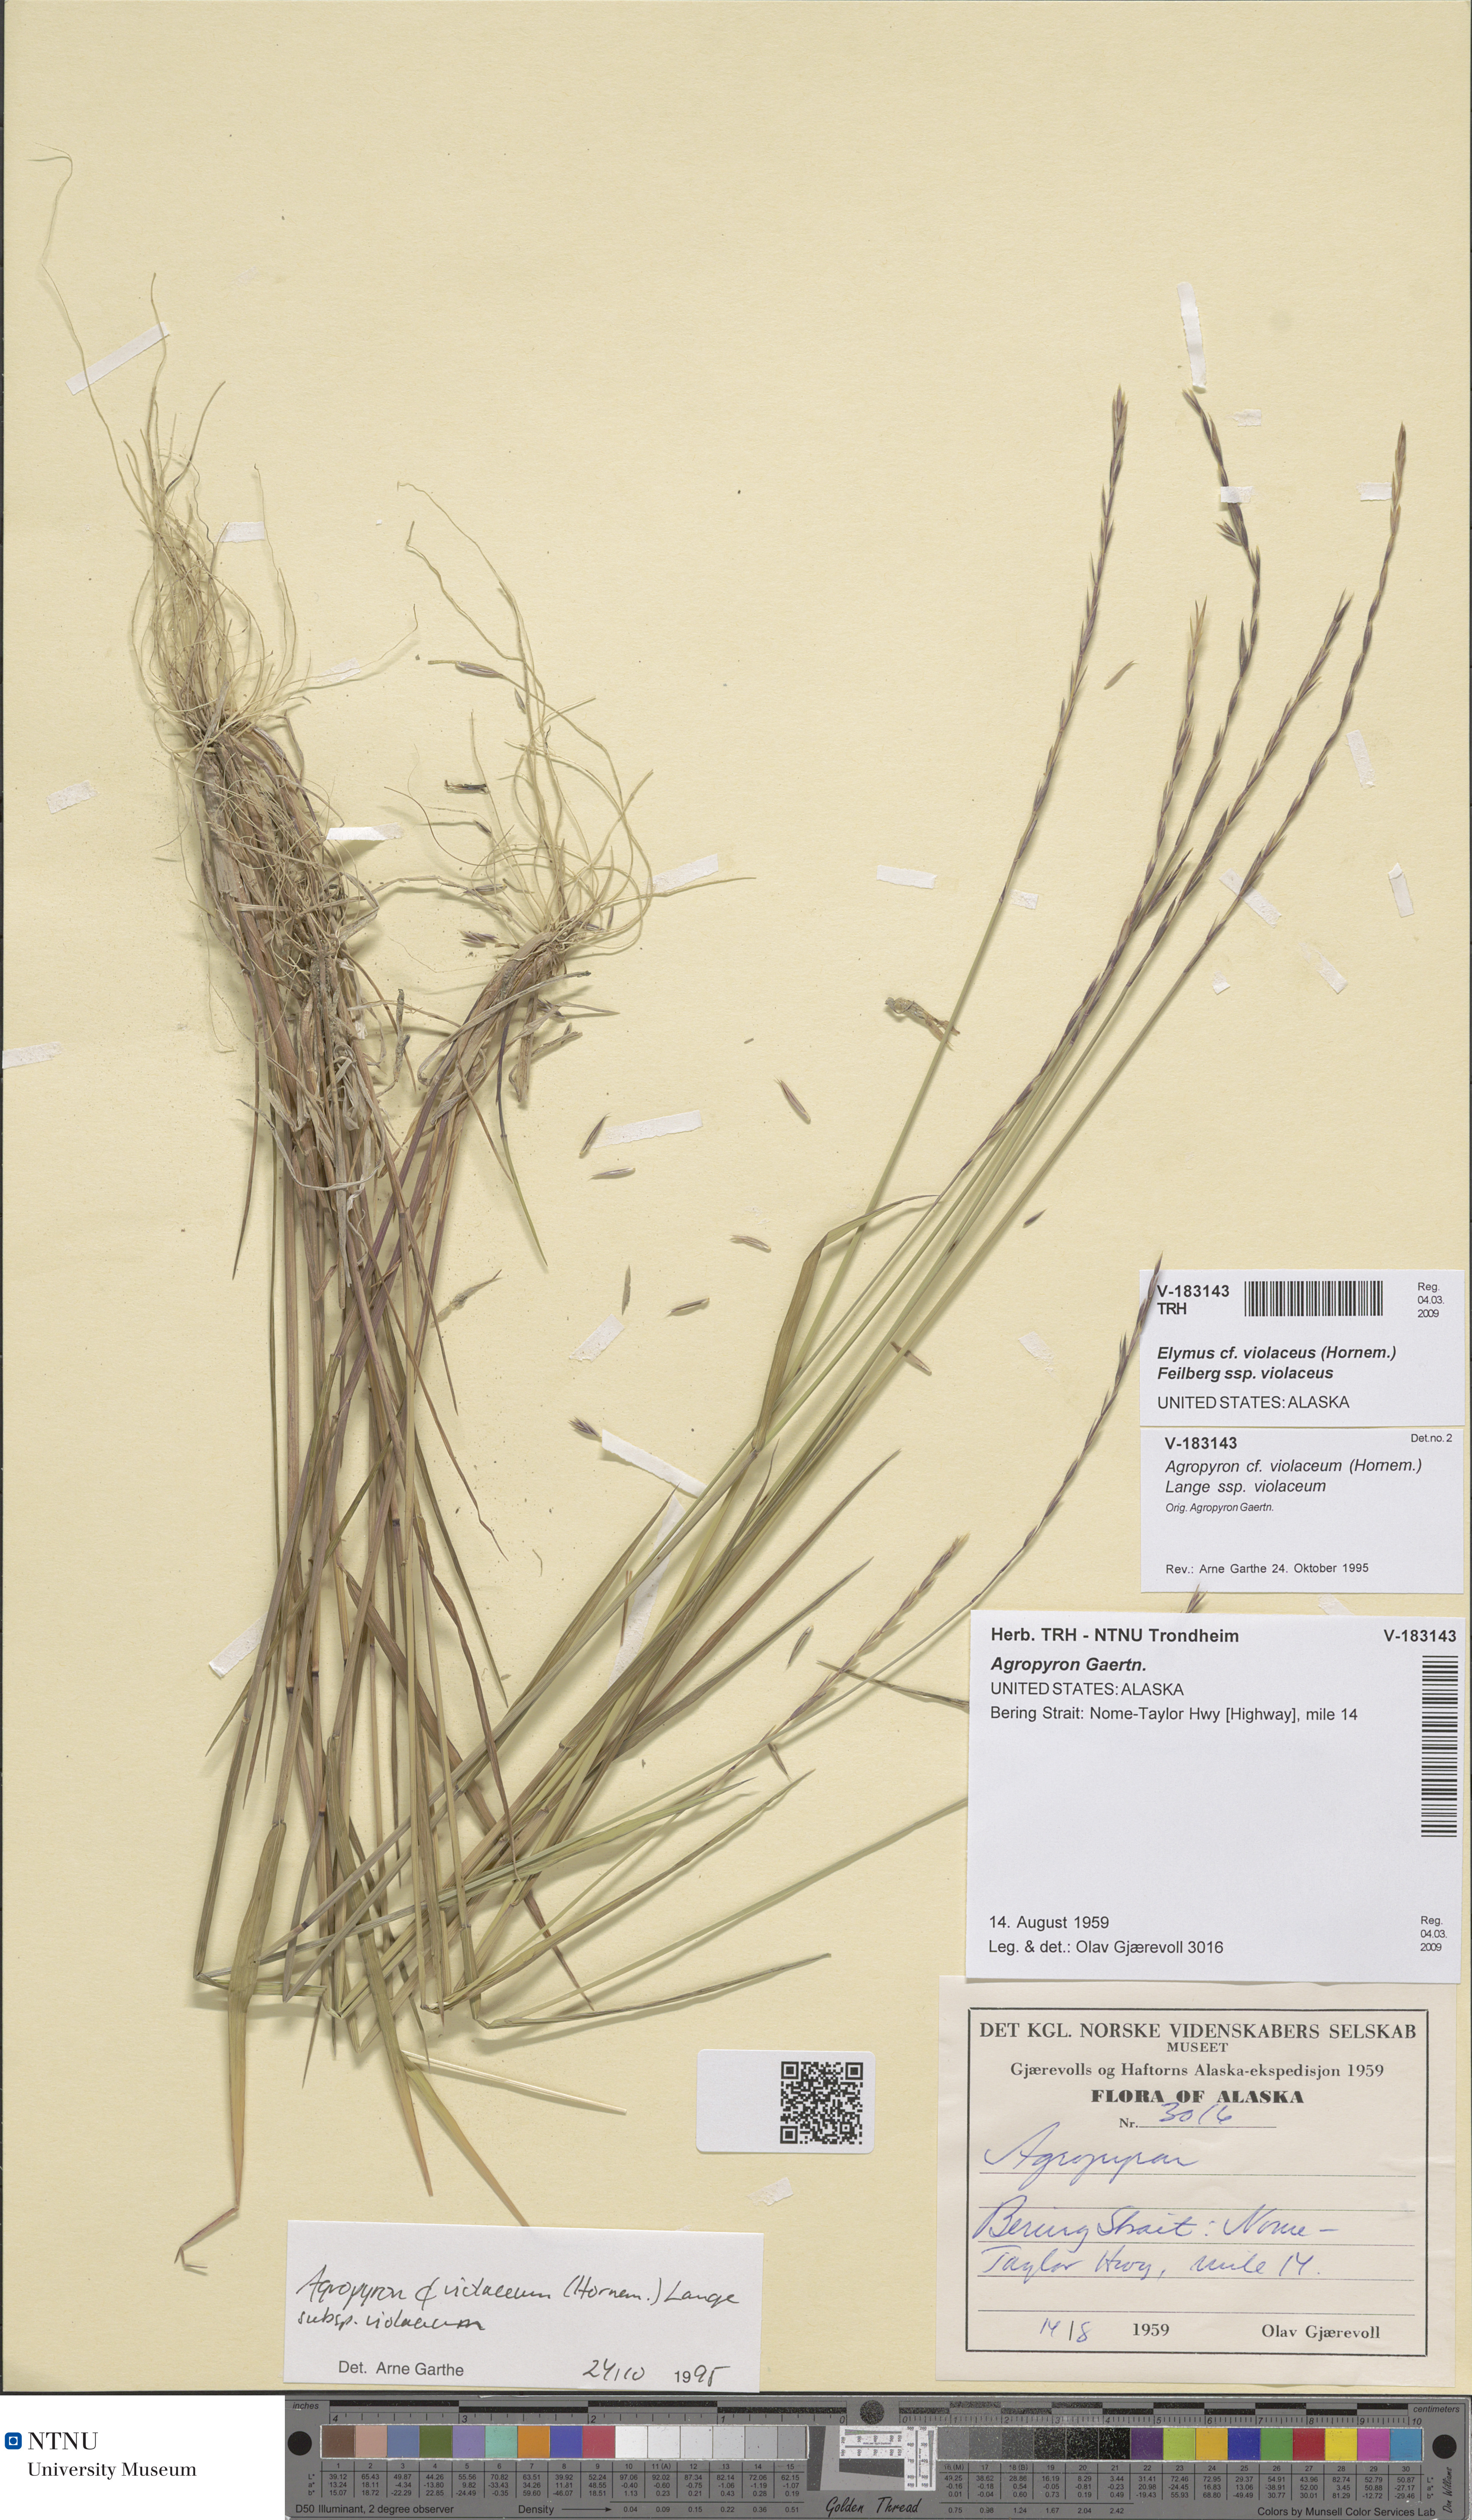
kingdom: Plantae
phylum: Tracheophyta
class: Liliopsida
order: Poales
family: Poaceae
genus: Elymus
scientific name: Elymus violaceus
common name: Arctic wheatgrass
